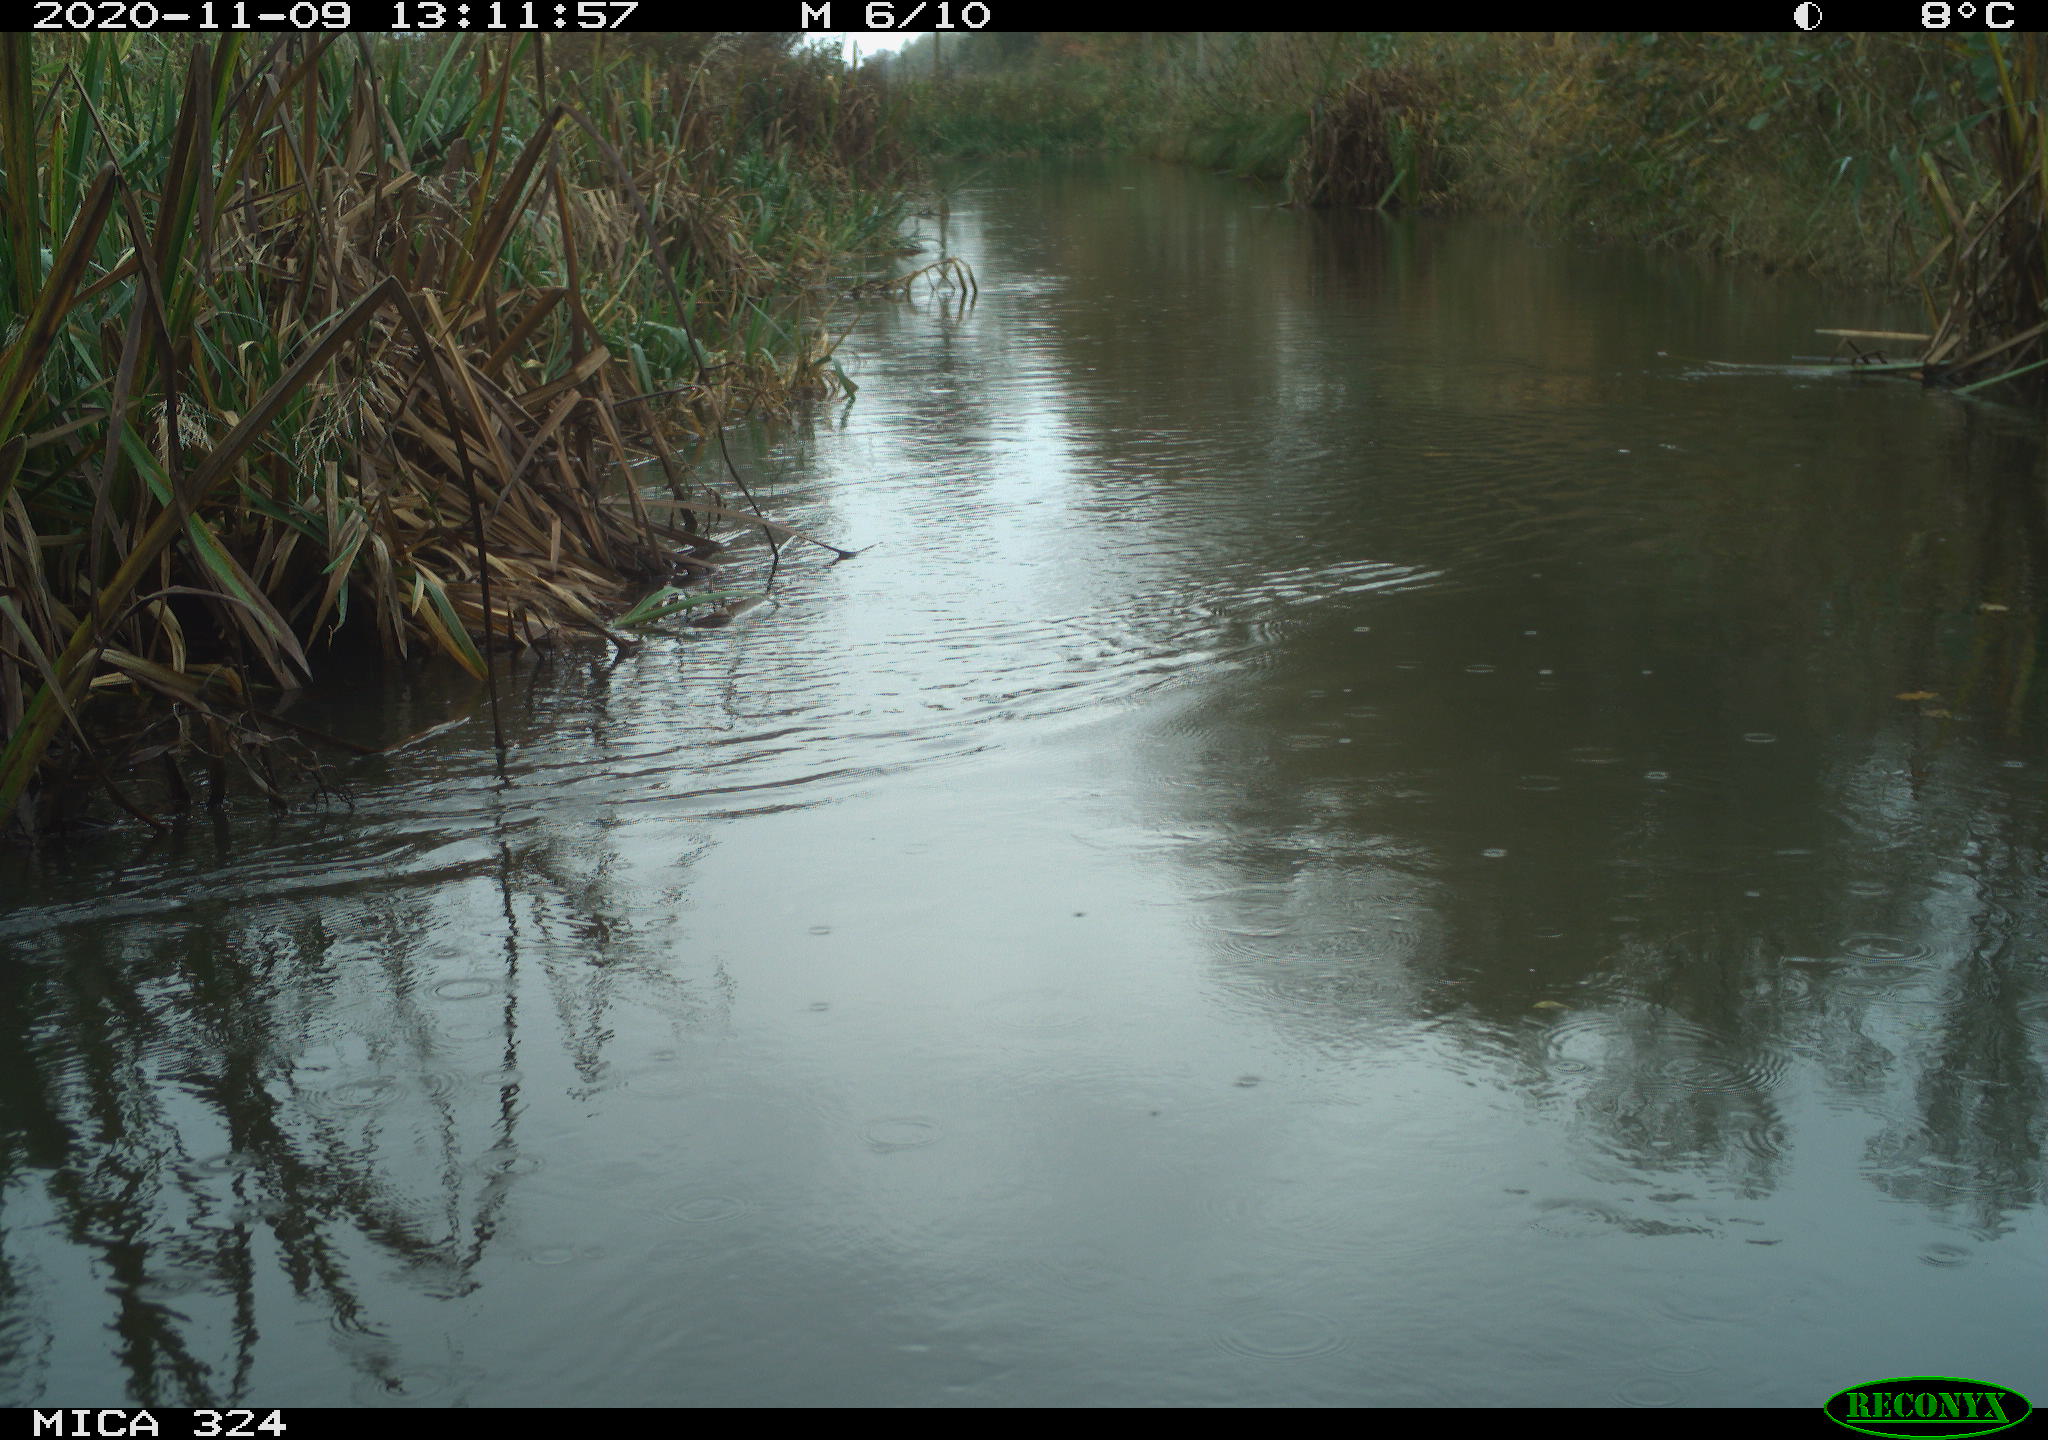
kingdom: Animalia
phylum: Chordata
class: Aves
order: Gruiformes
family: Rallidae
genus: Gallinula
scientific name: Gallinula chloropus
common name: Common moorhen
